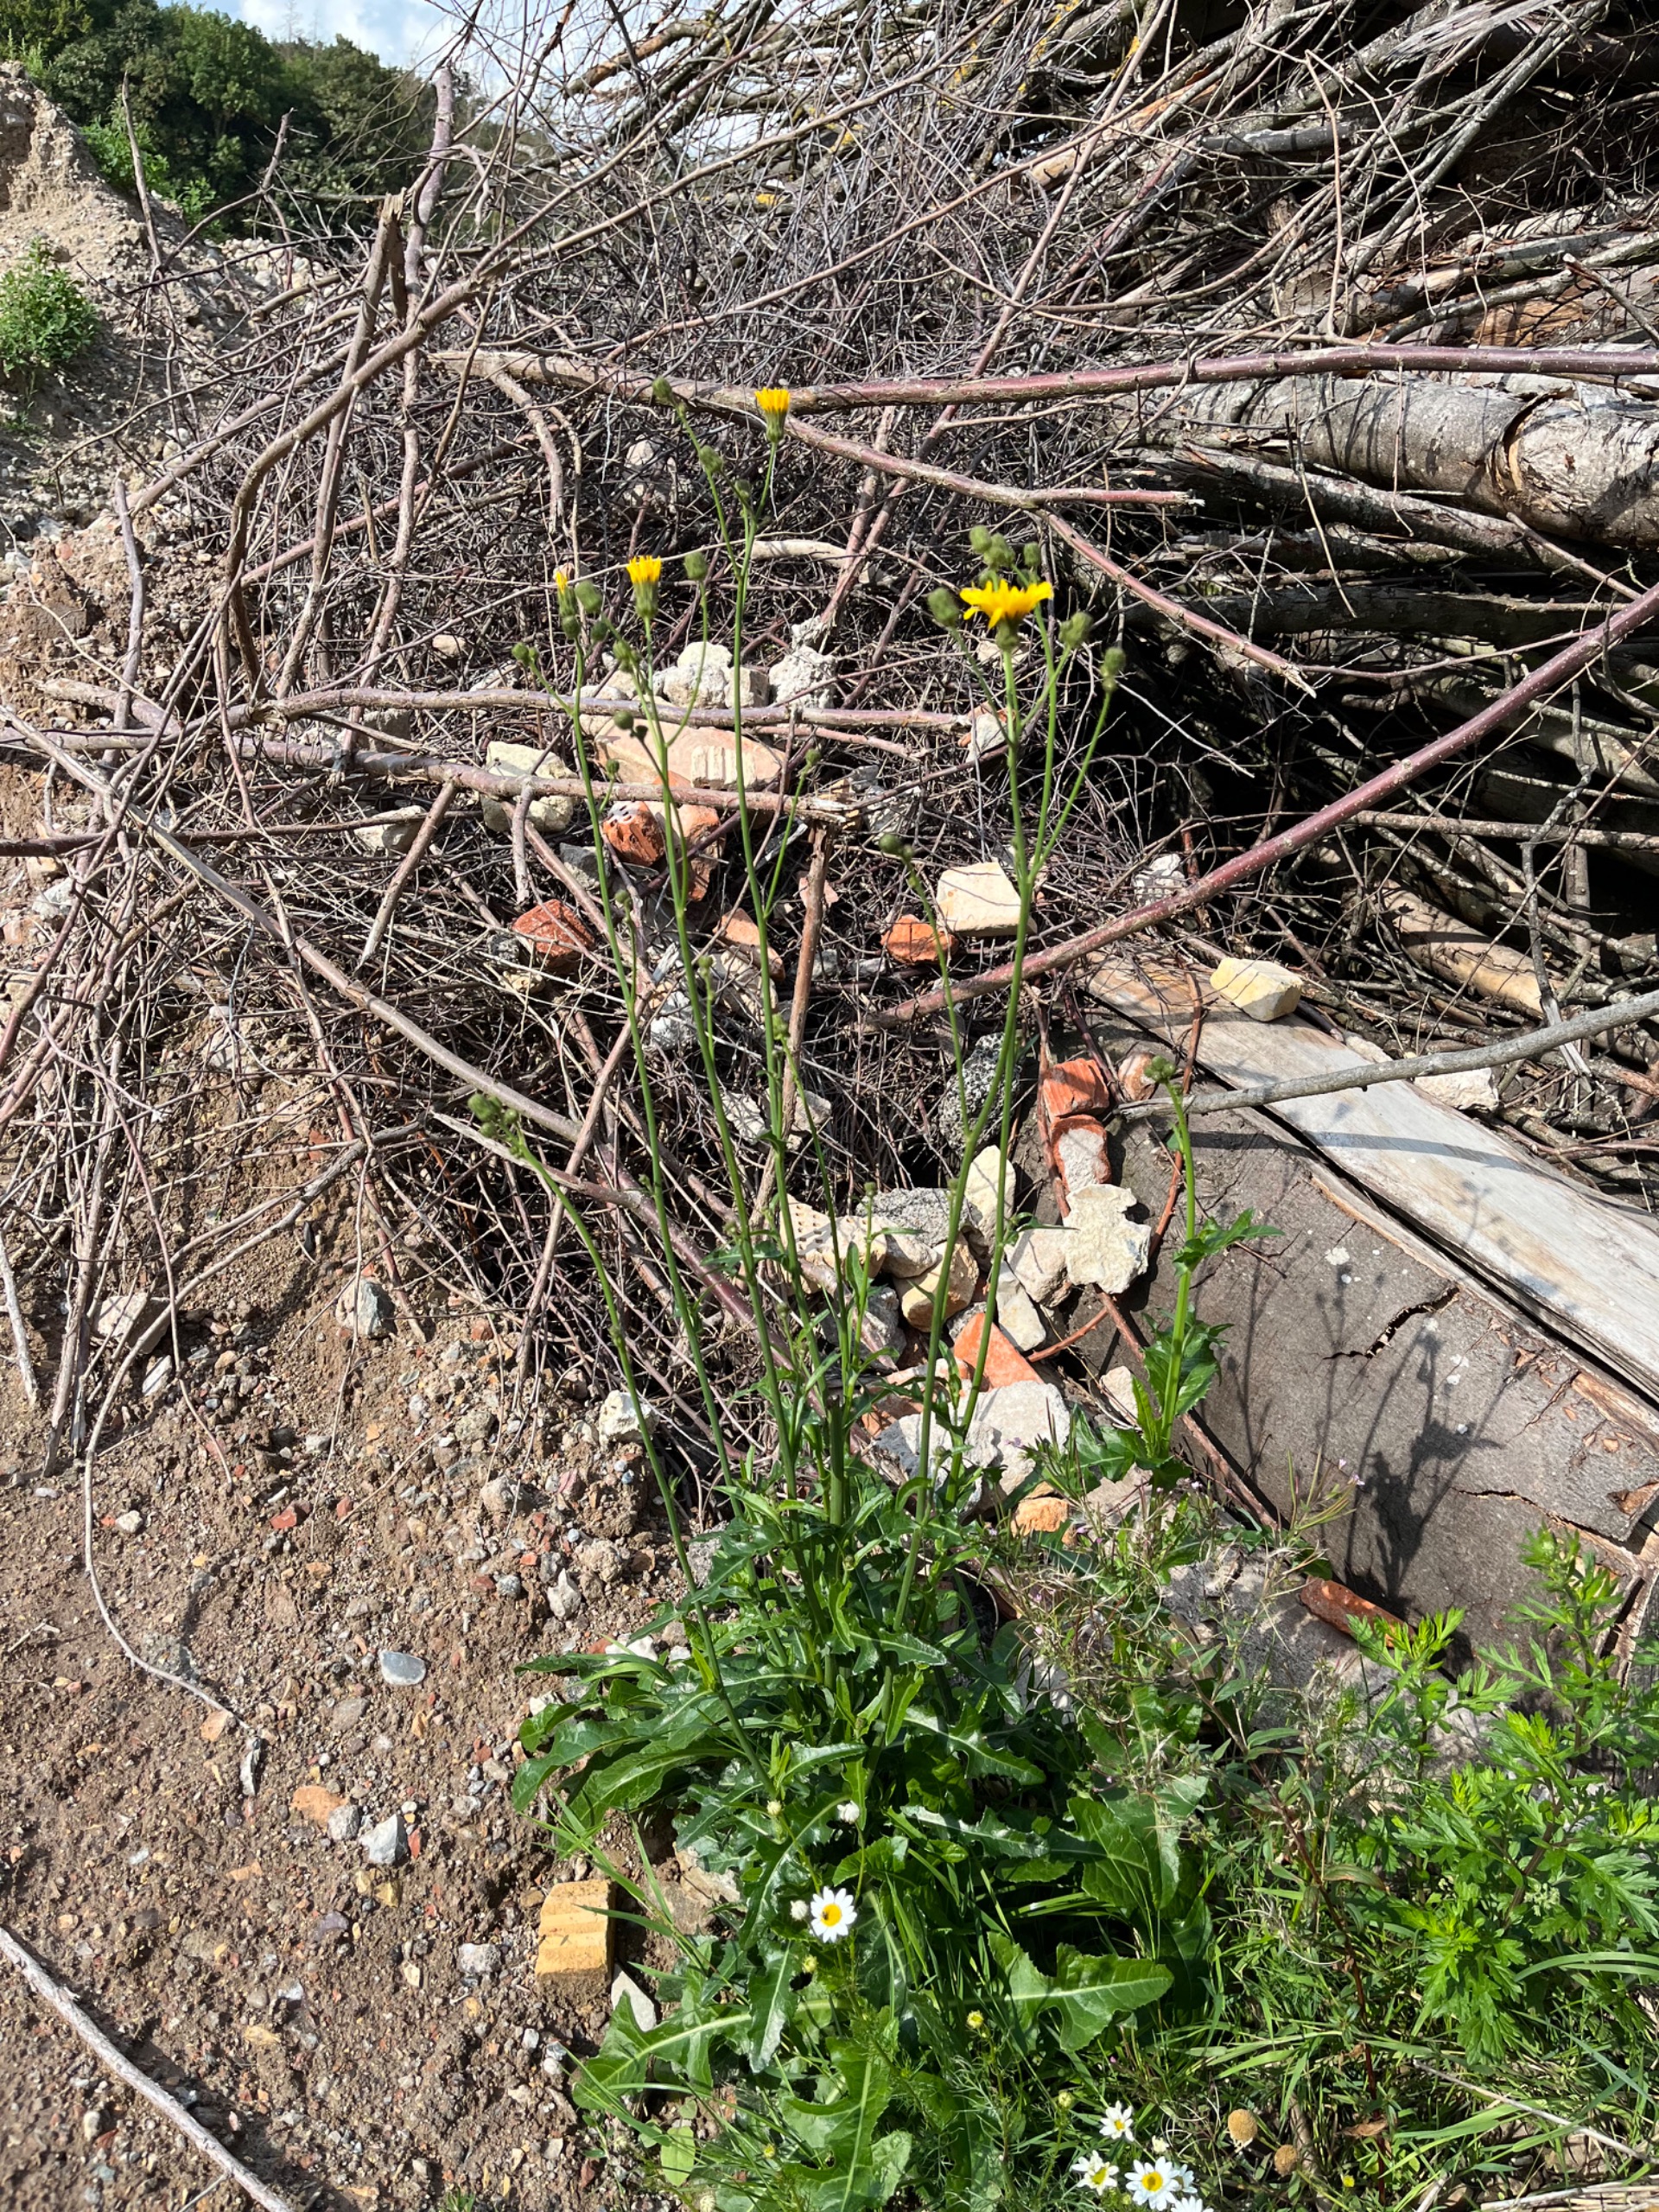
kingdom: Plantae
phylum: Tracheophyta
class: Magnoliopsida
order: Asterales
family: Asteraceae
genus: Sonchus
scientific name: Sonchus arvensis
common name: Ager-svinemælk
